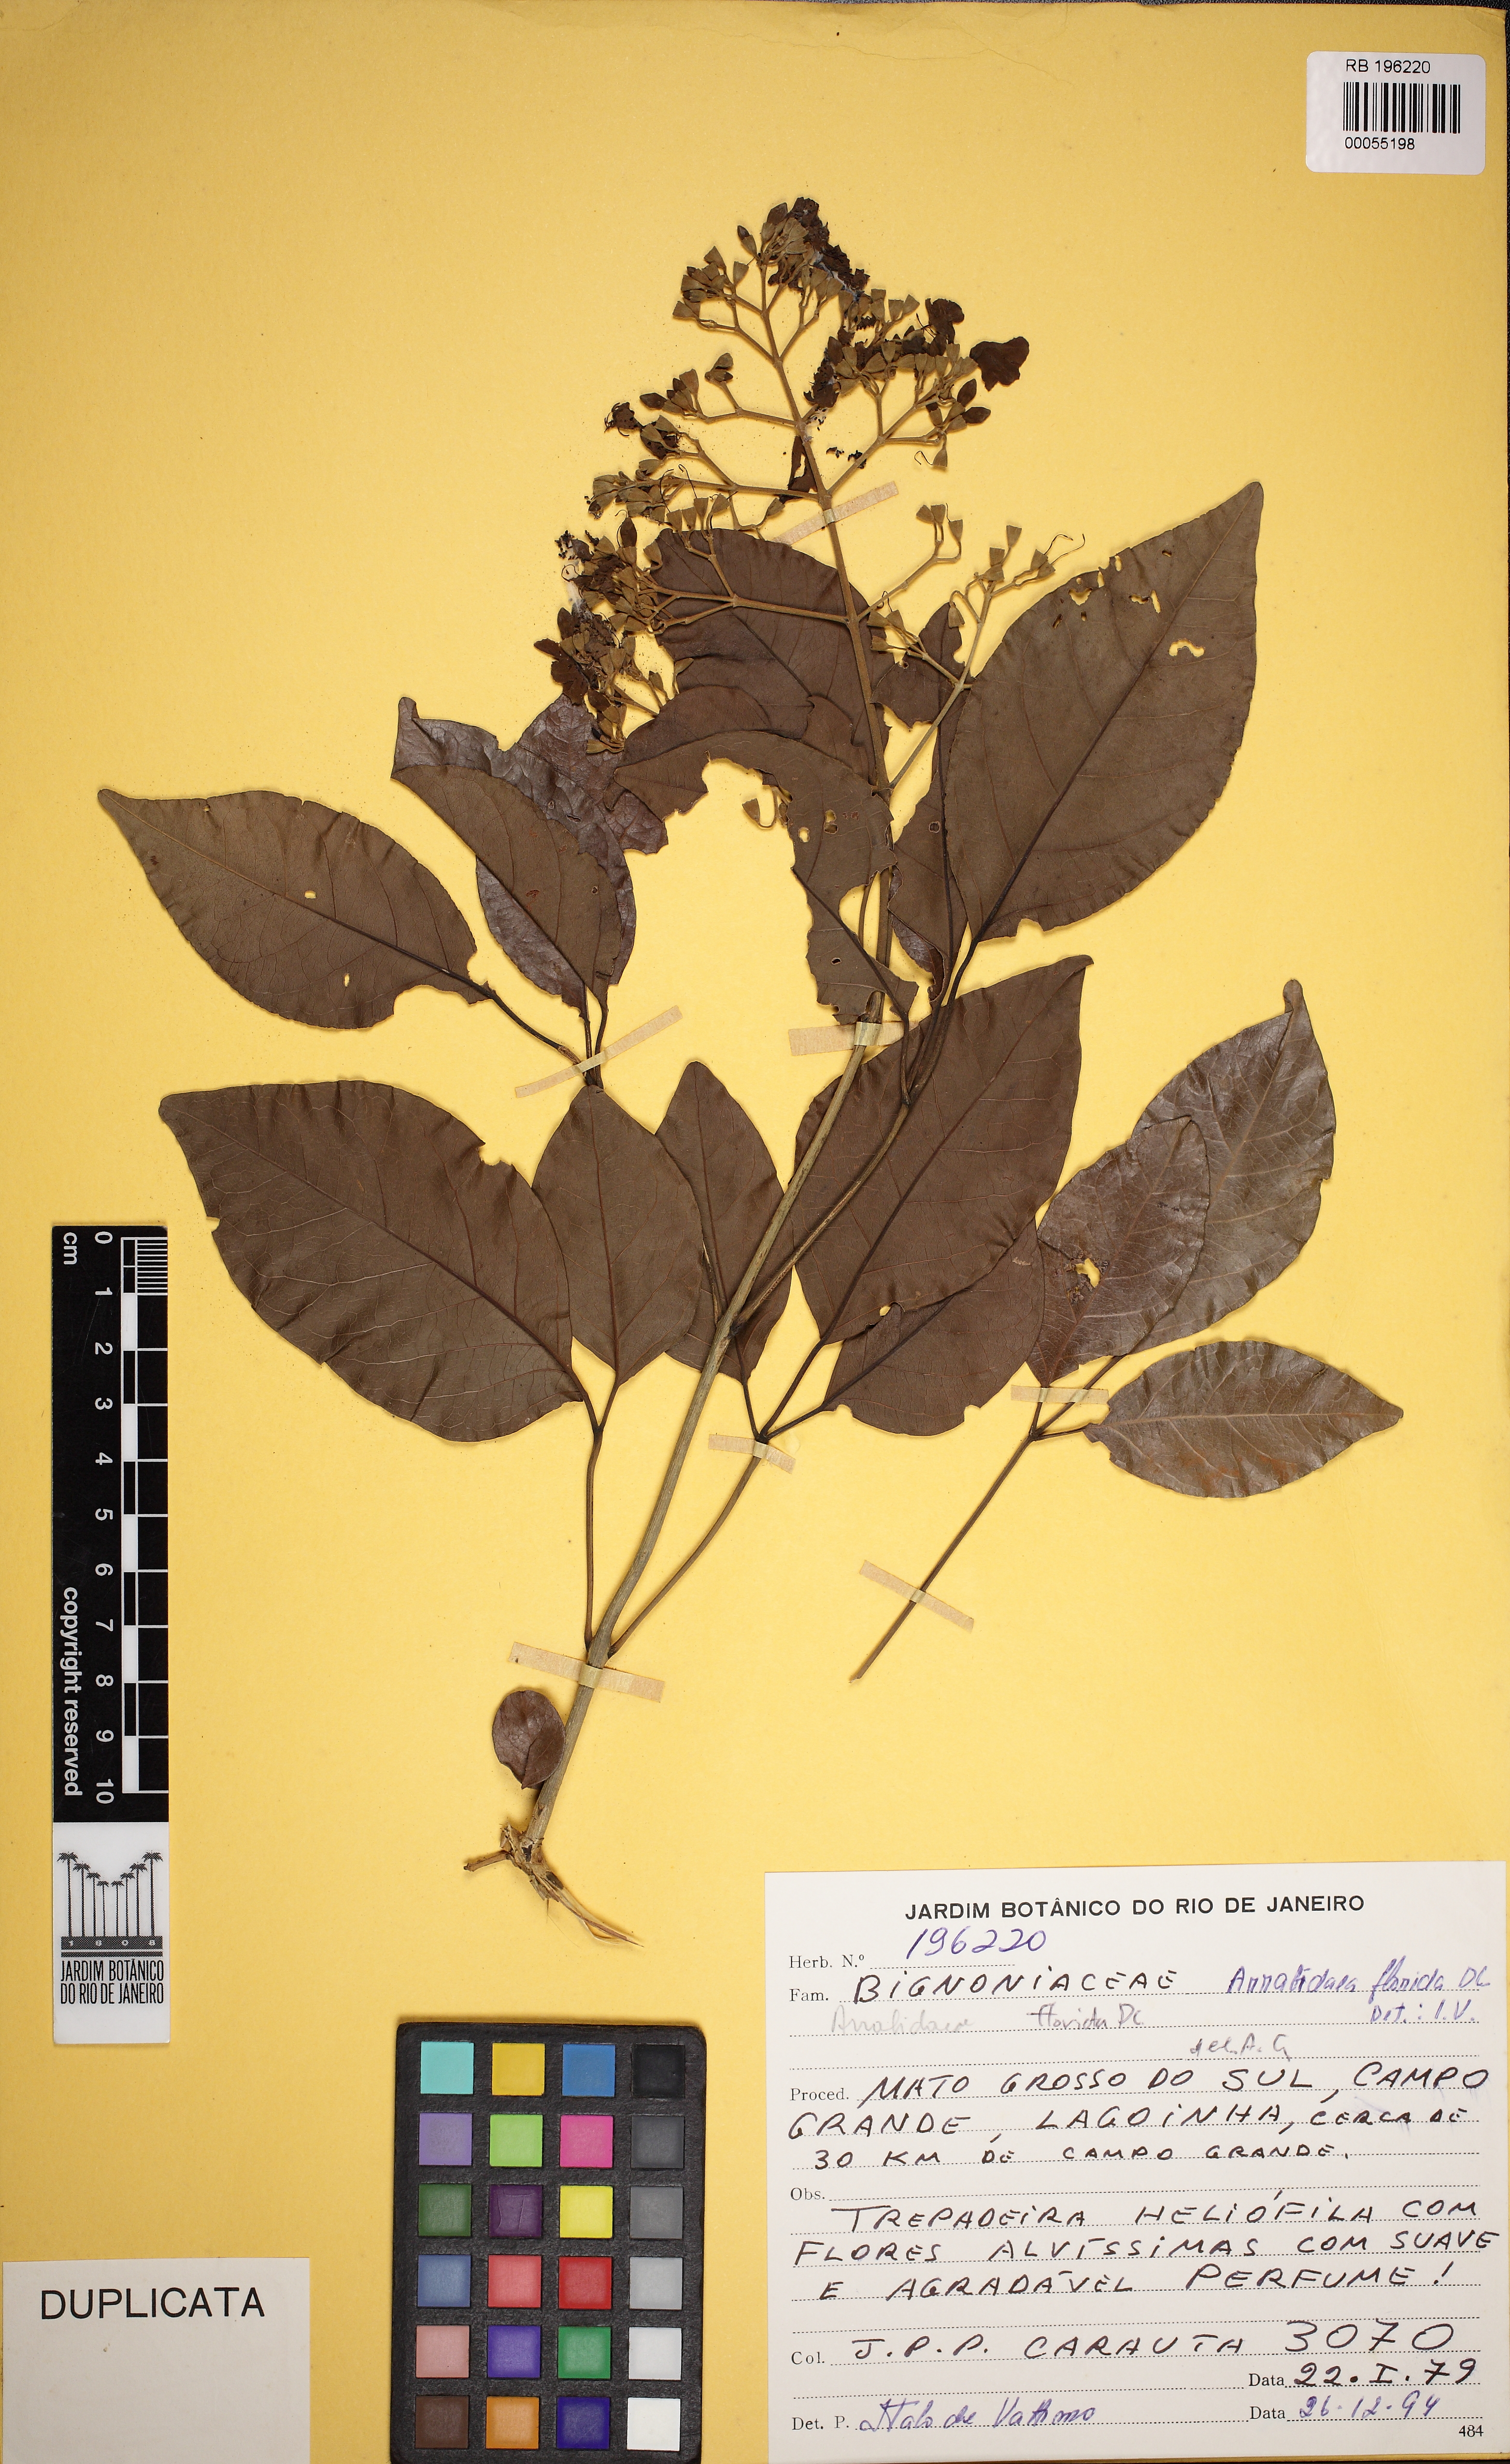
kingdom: Plantae
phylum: Tracheophyta
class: Magnoliopsida
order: Lamiales
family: Bignoniaceae
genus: Fridericia
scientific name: Fridericia florida
